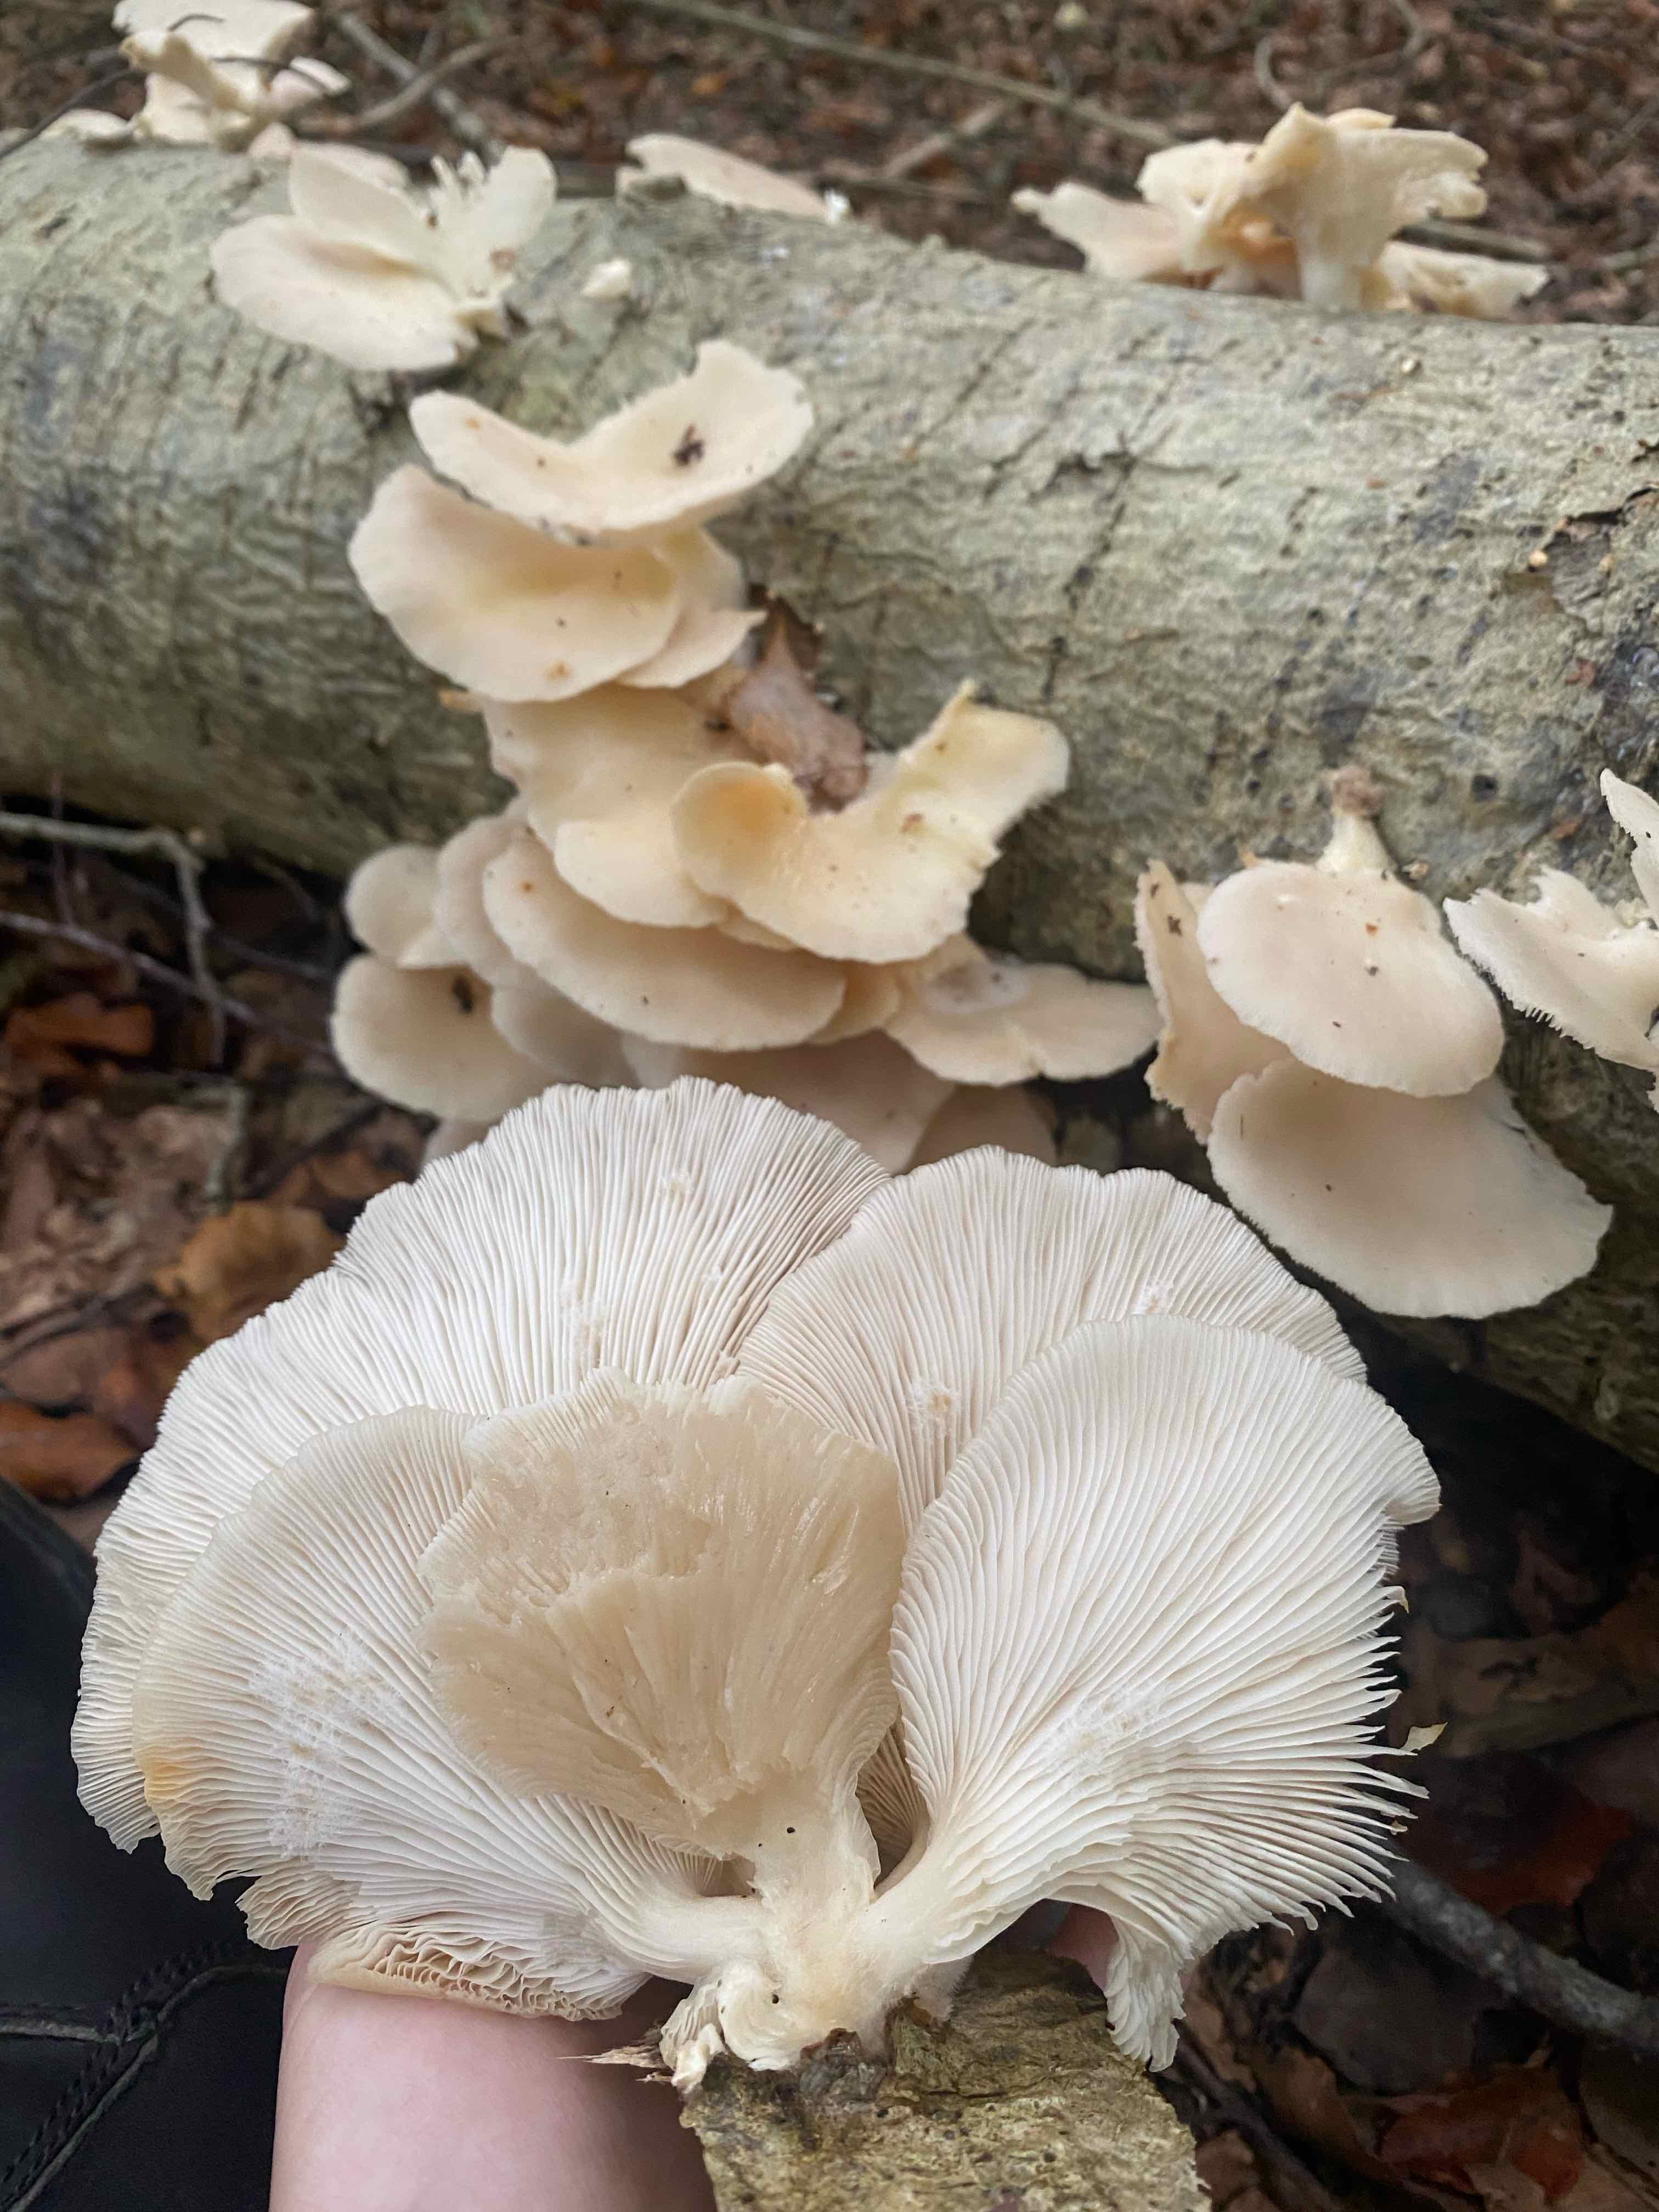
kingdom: Fungi
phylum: Basidiomycota
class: Agaricomycetes
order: Agaricales
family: Pleurotaceae
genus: Pleurotus
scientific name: Pleurotus pulmonarius
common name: sommer-østershat
